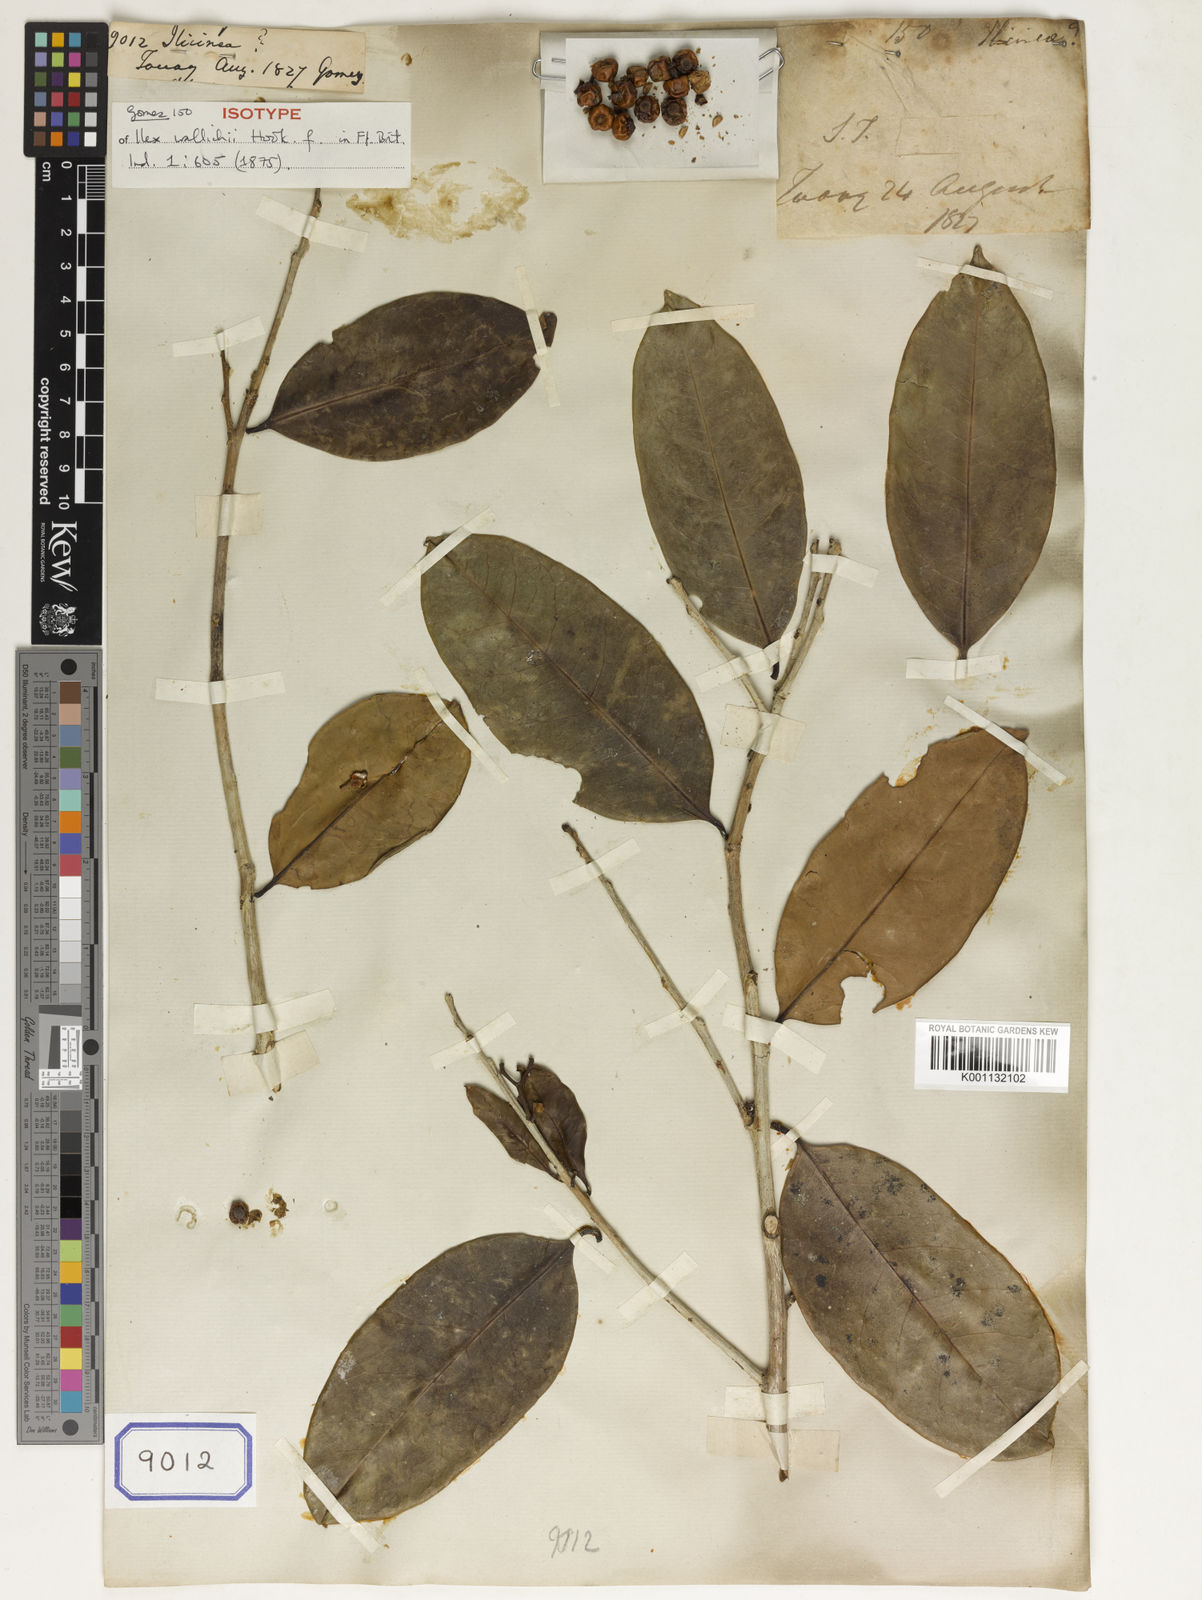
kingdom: Plantae
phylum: Tracheophyta
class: Magnoliopsida
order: Austrobaileyales
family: Schisandraceae
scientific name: Schisandraceae
